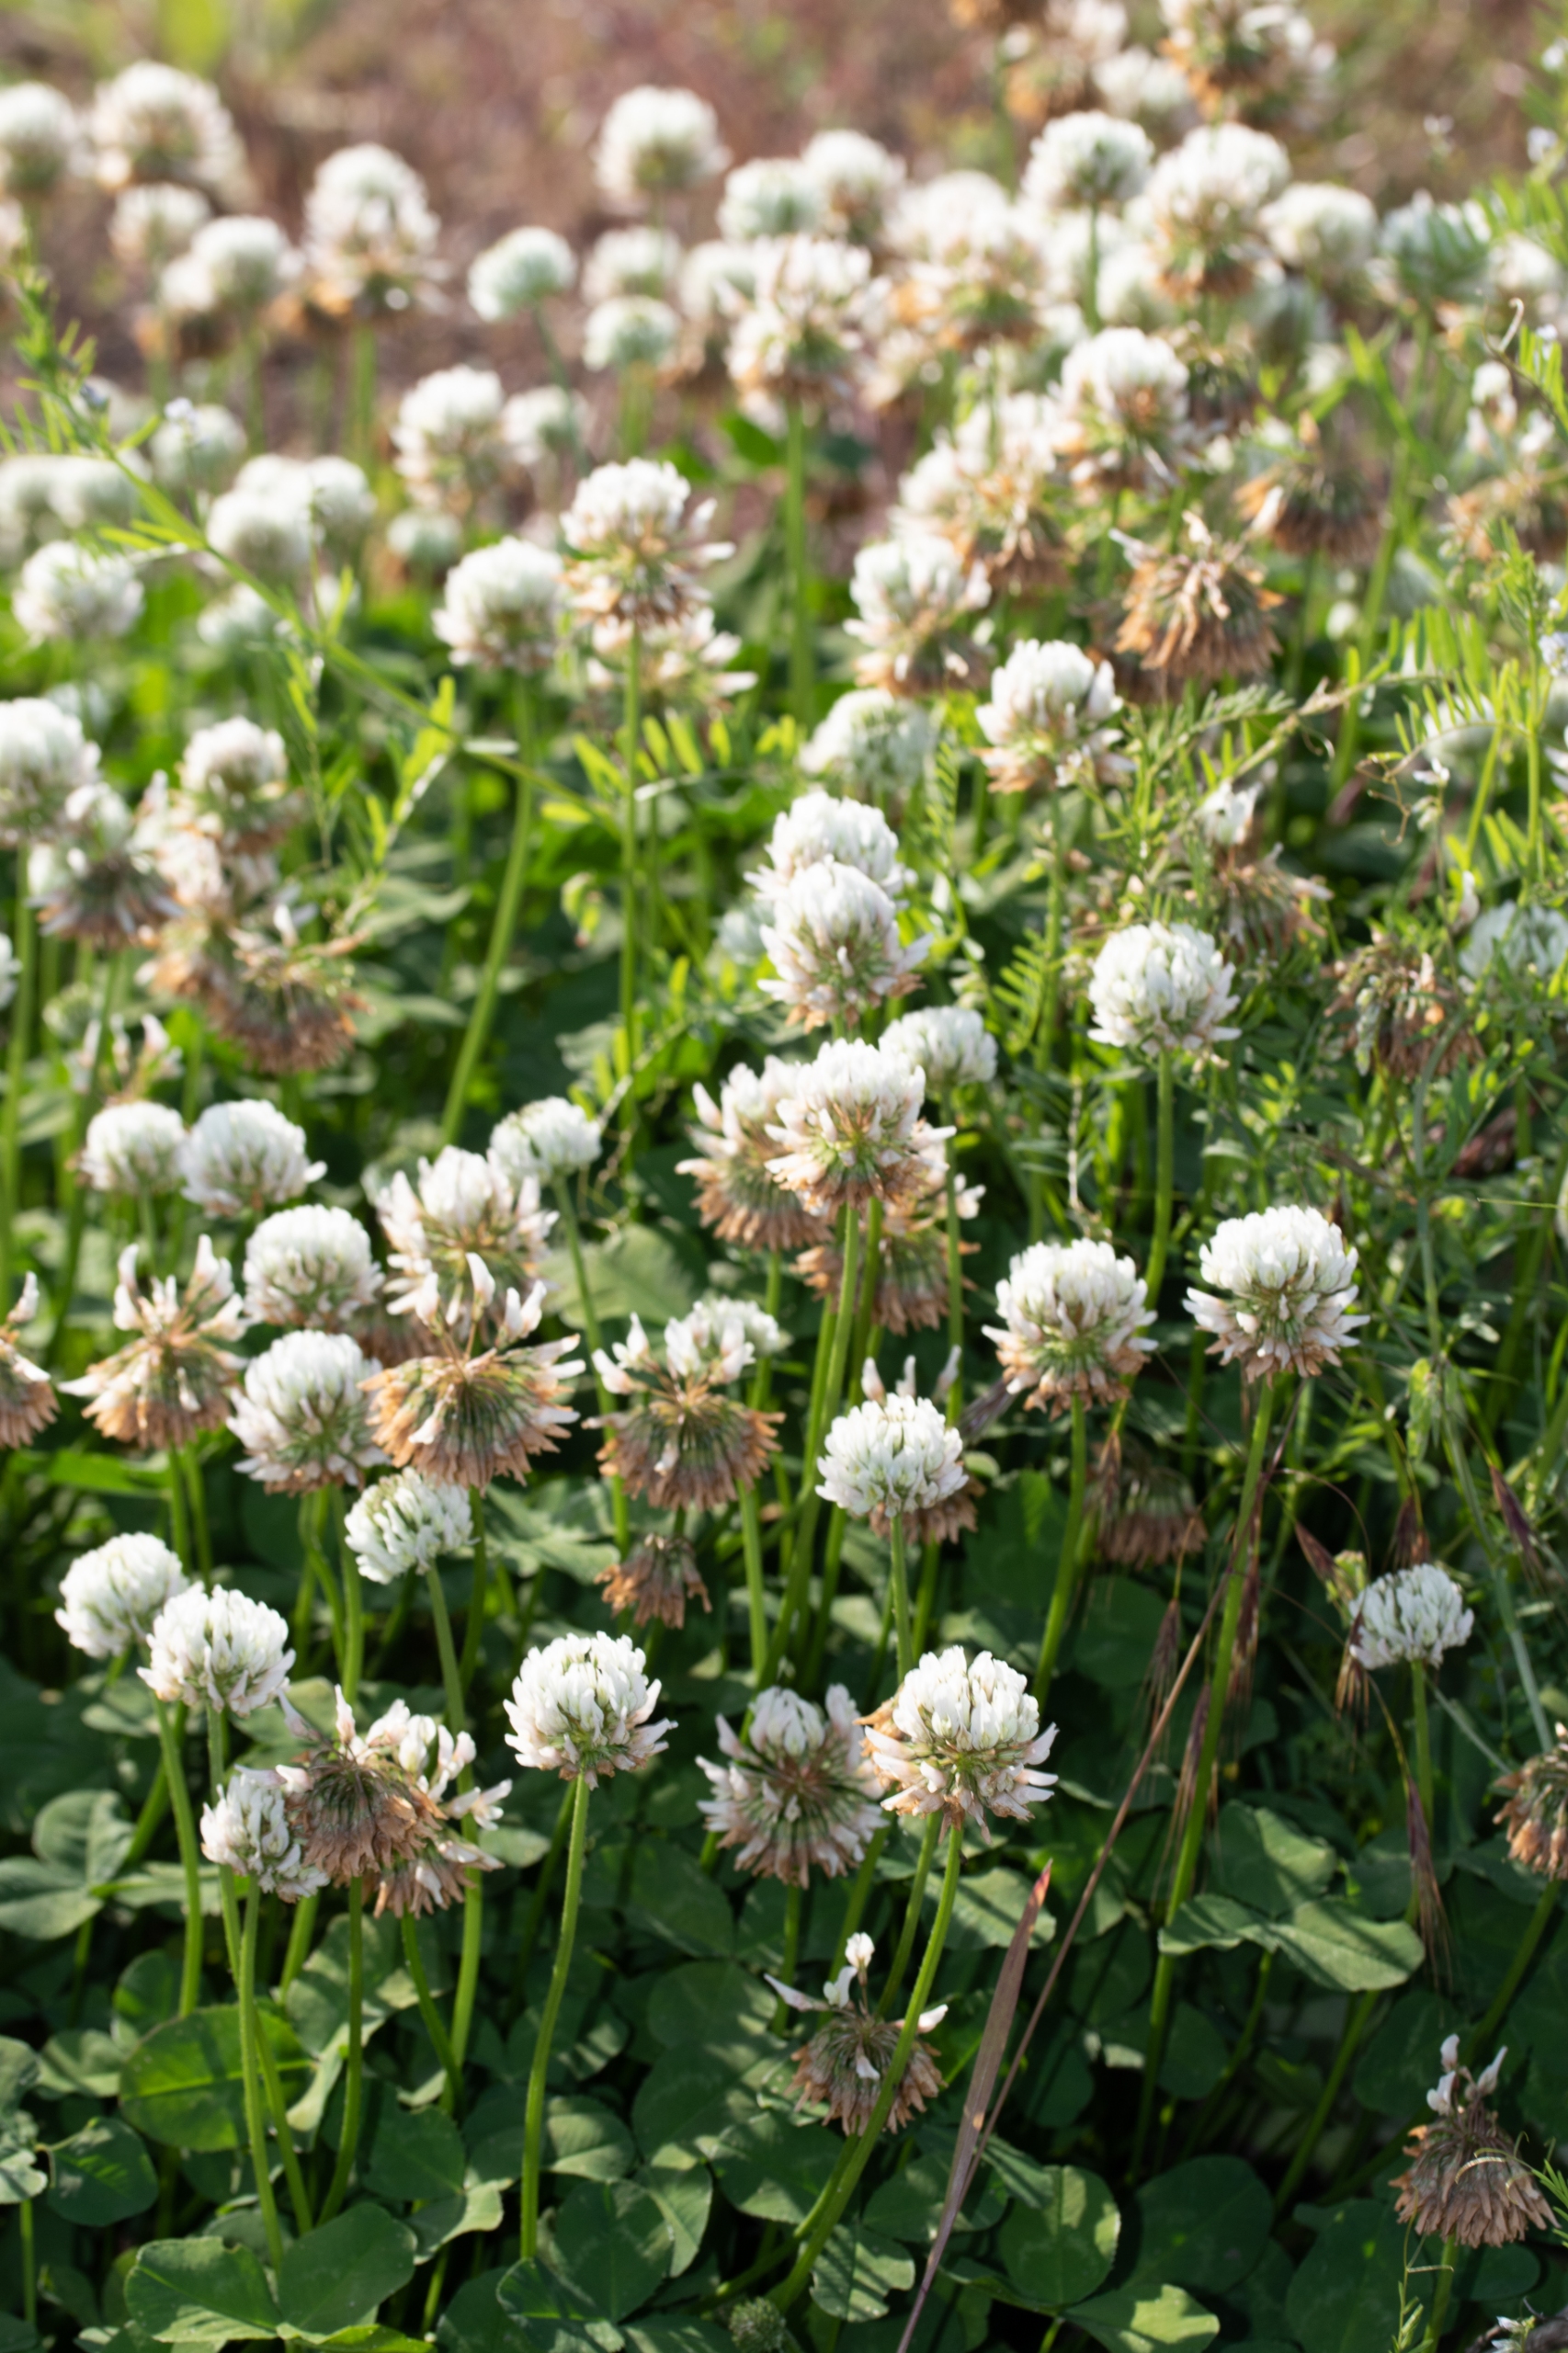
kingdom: Plantae
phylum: Tracheophyta
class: Magnoliopsida
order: Fabales
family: Fabaceae
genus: Trifolium
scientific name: Trifolium repens
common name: Hvid-kløver
